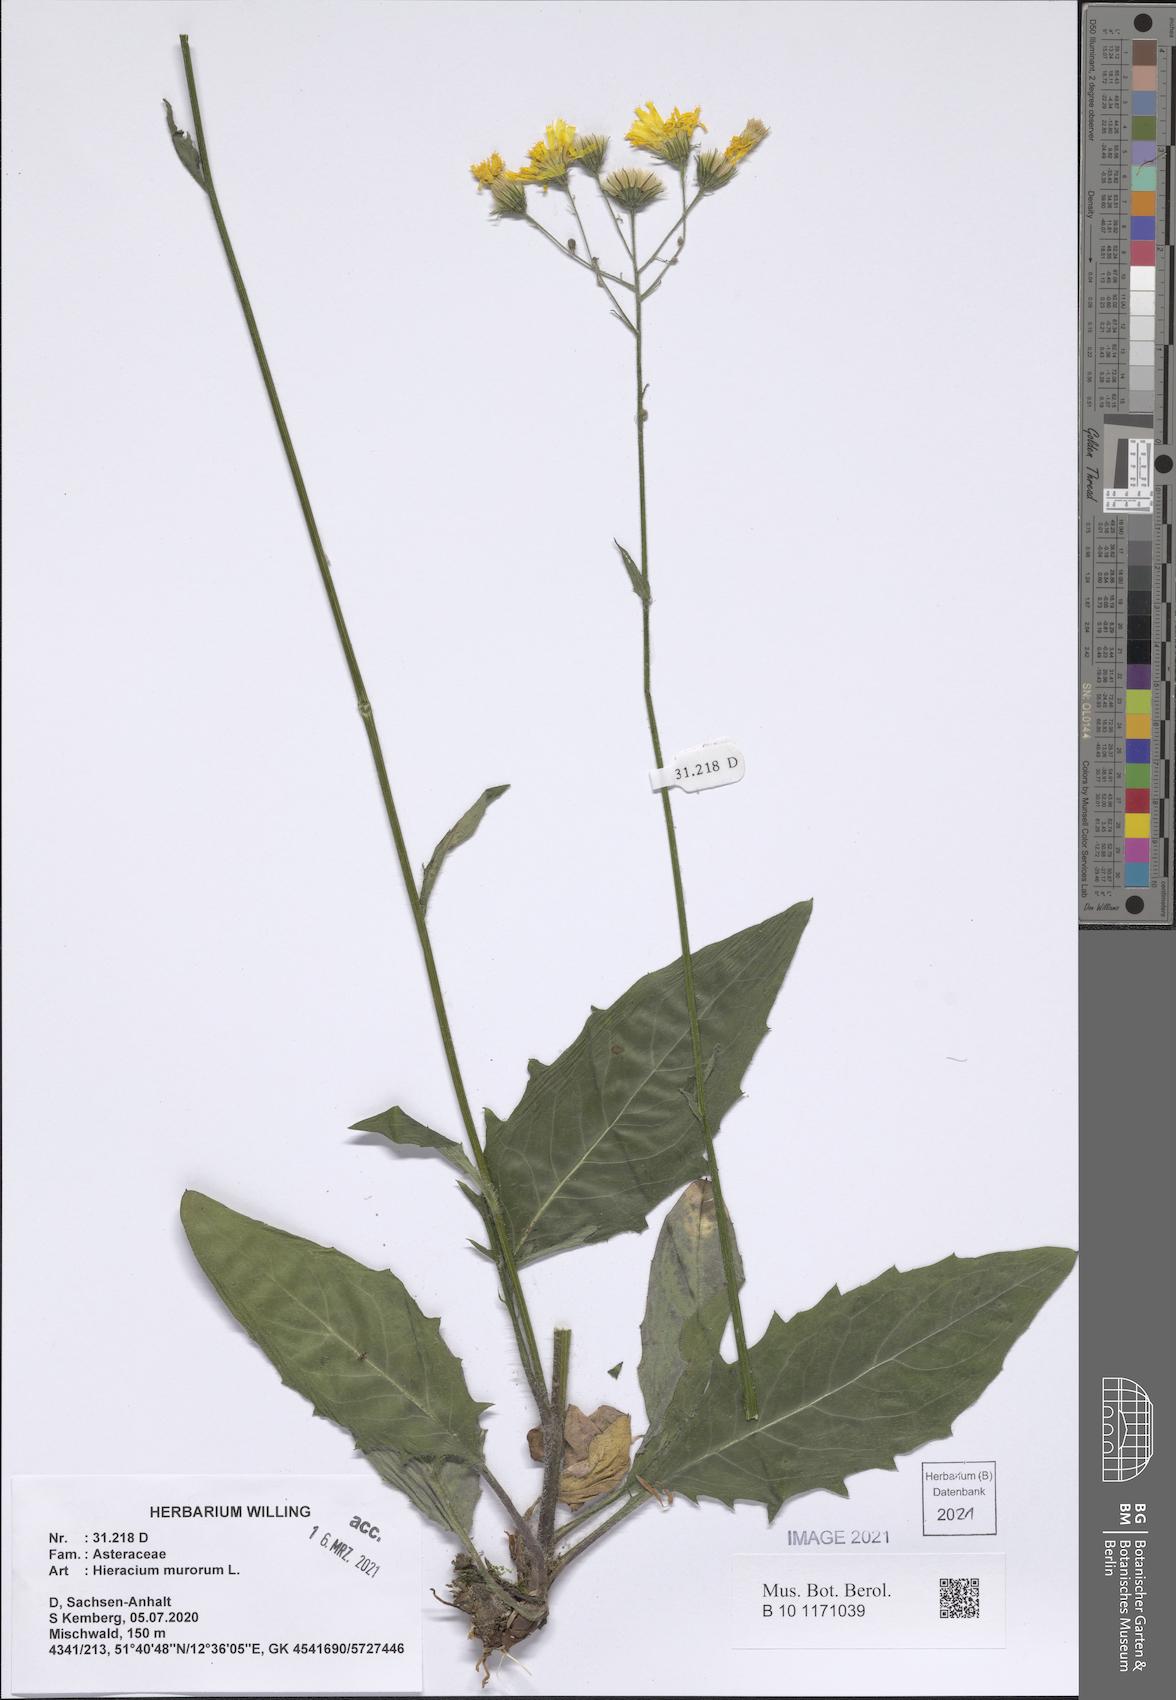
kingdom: Plantae
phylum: Tracheophyta
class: Magnoliopsida
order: Asterales
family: Asteraceae
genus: Hieracium
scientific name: Hieracium murorum
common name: Wall hawkweed
